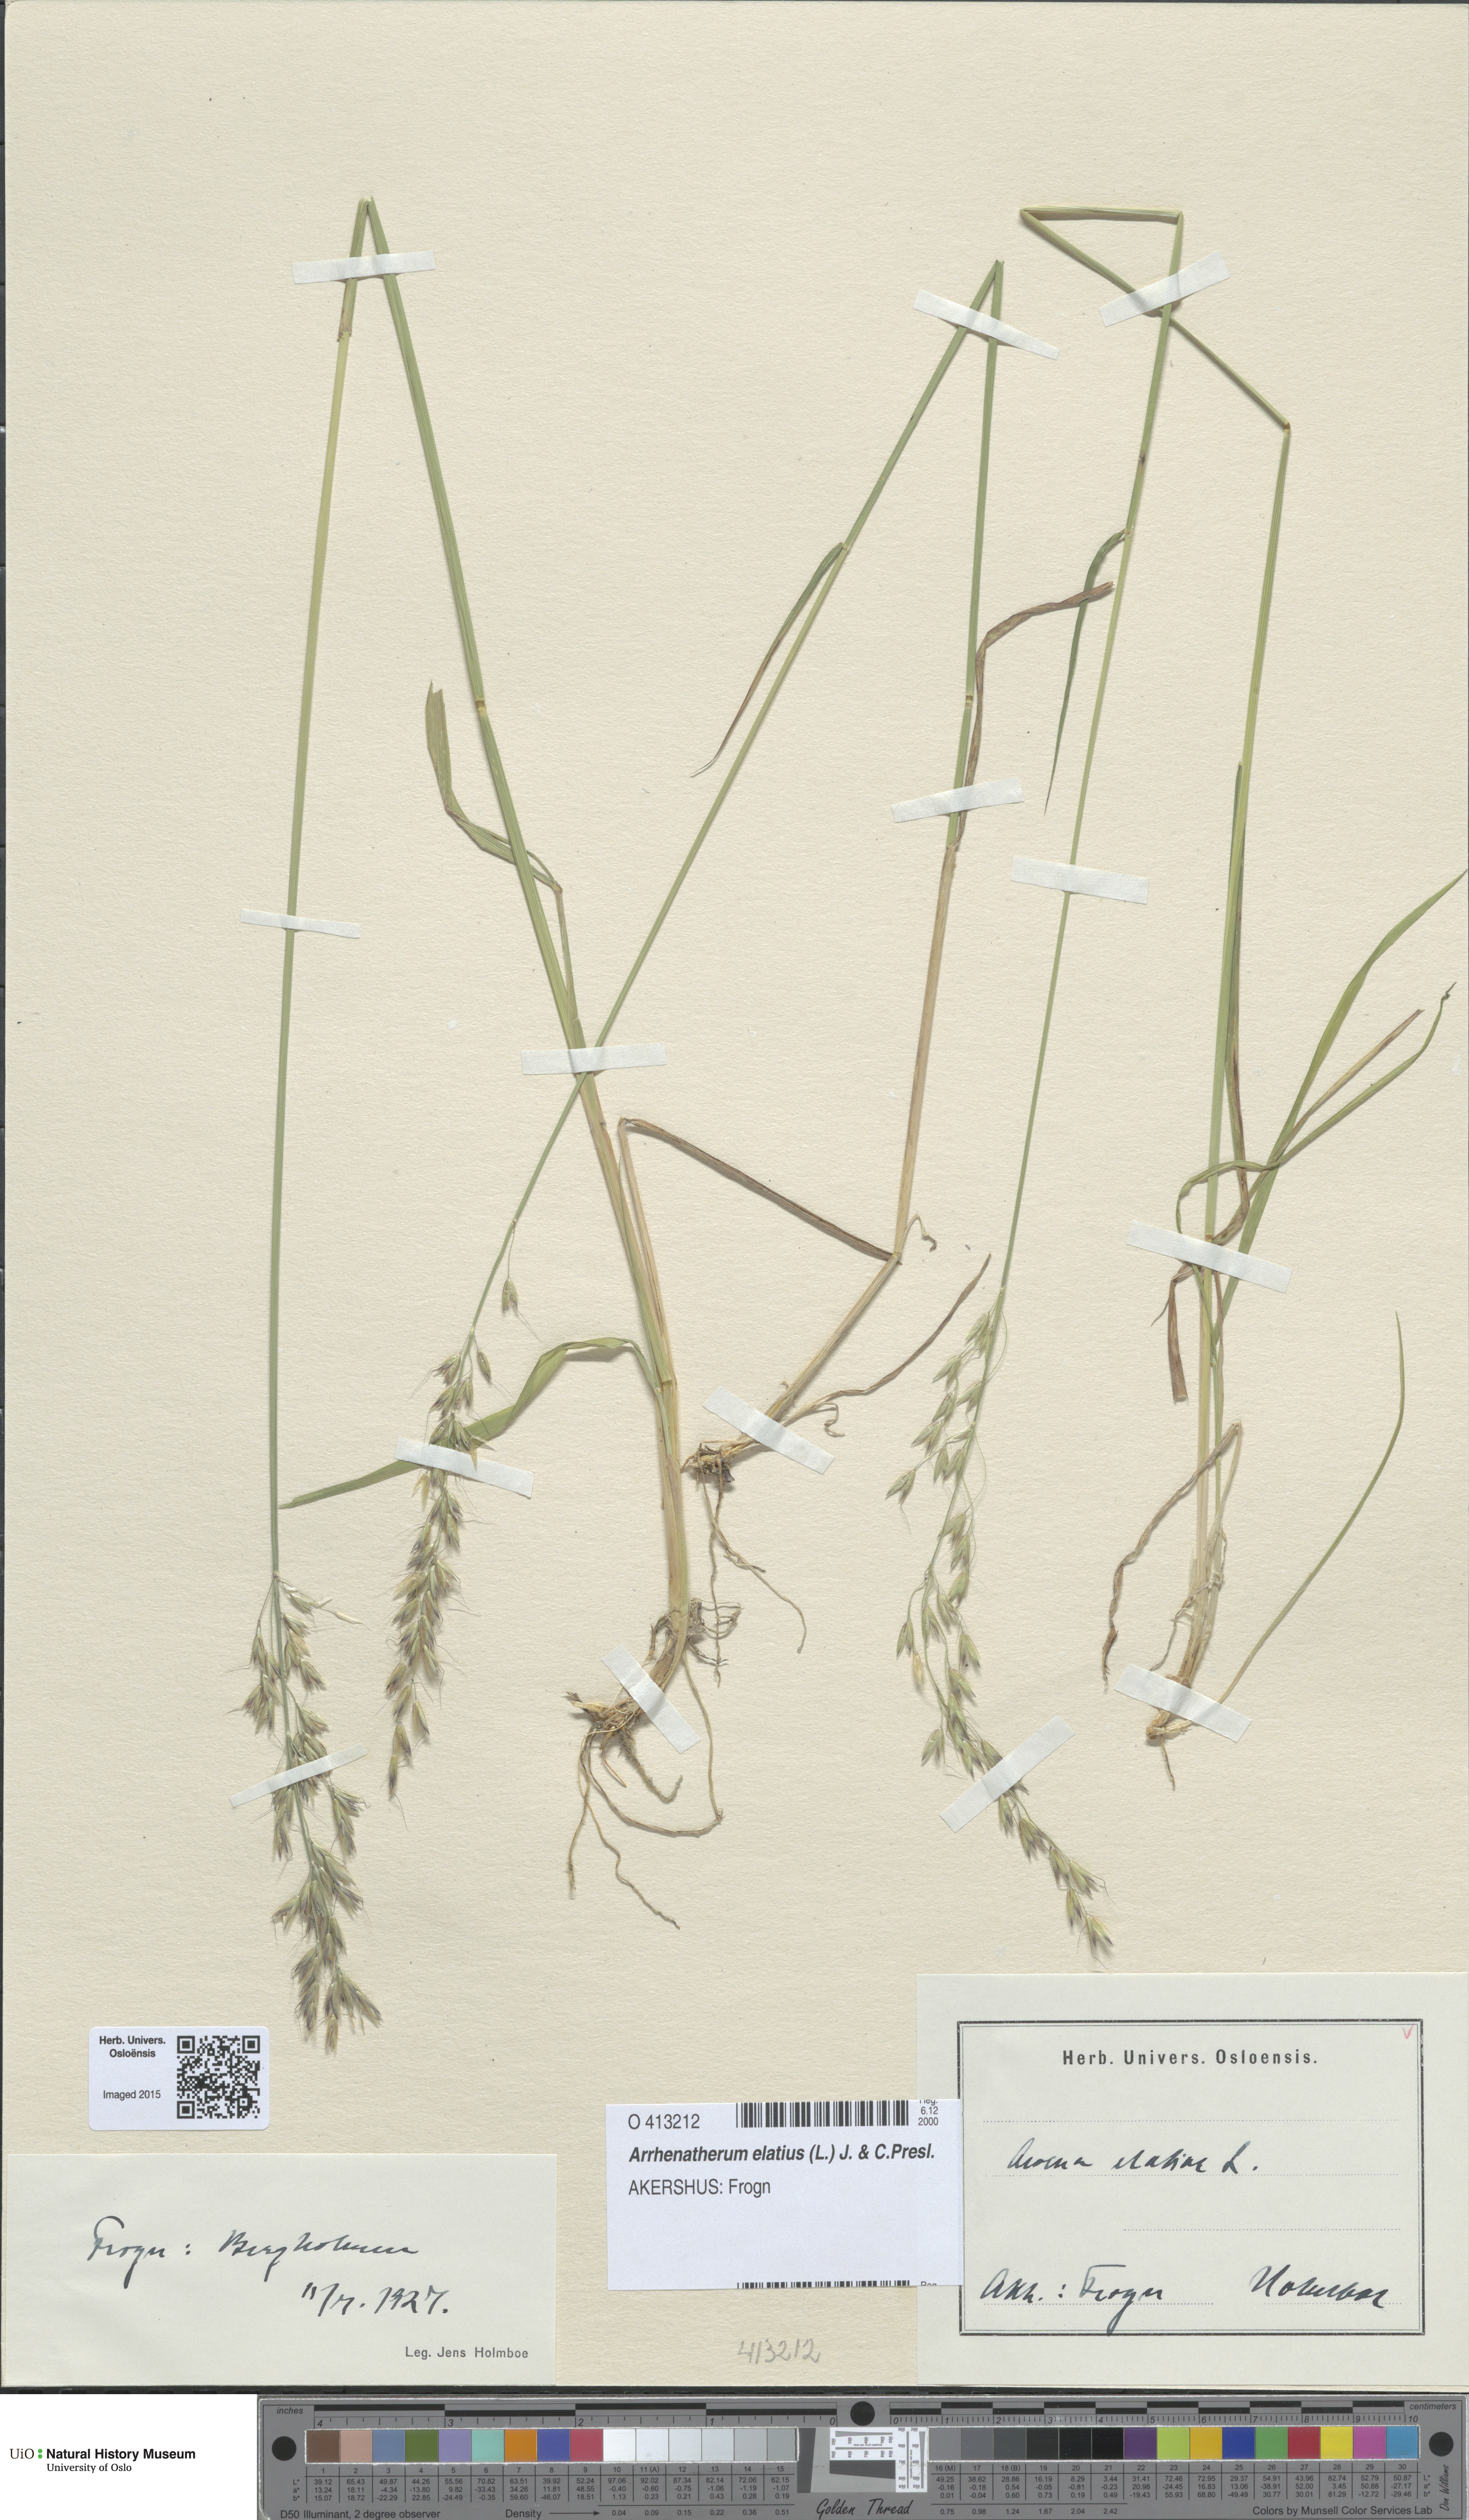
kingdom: Plantae
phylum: Tracheophyta
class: Liliopsida
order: Poales
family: Poaceae
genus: Arrhenatherum
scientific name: Arrhenatherum elatius
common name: Tall oatgrass
